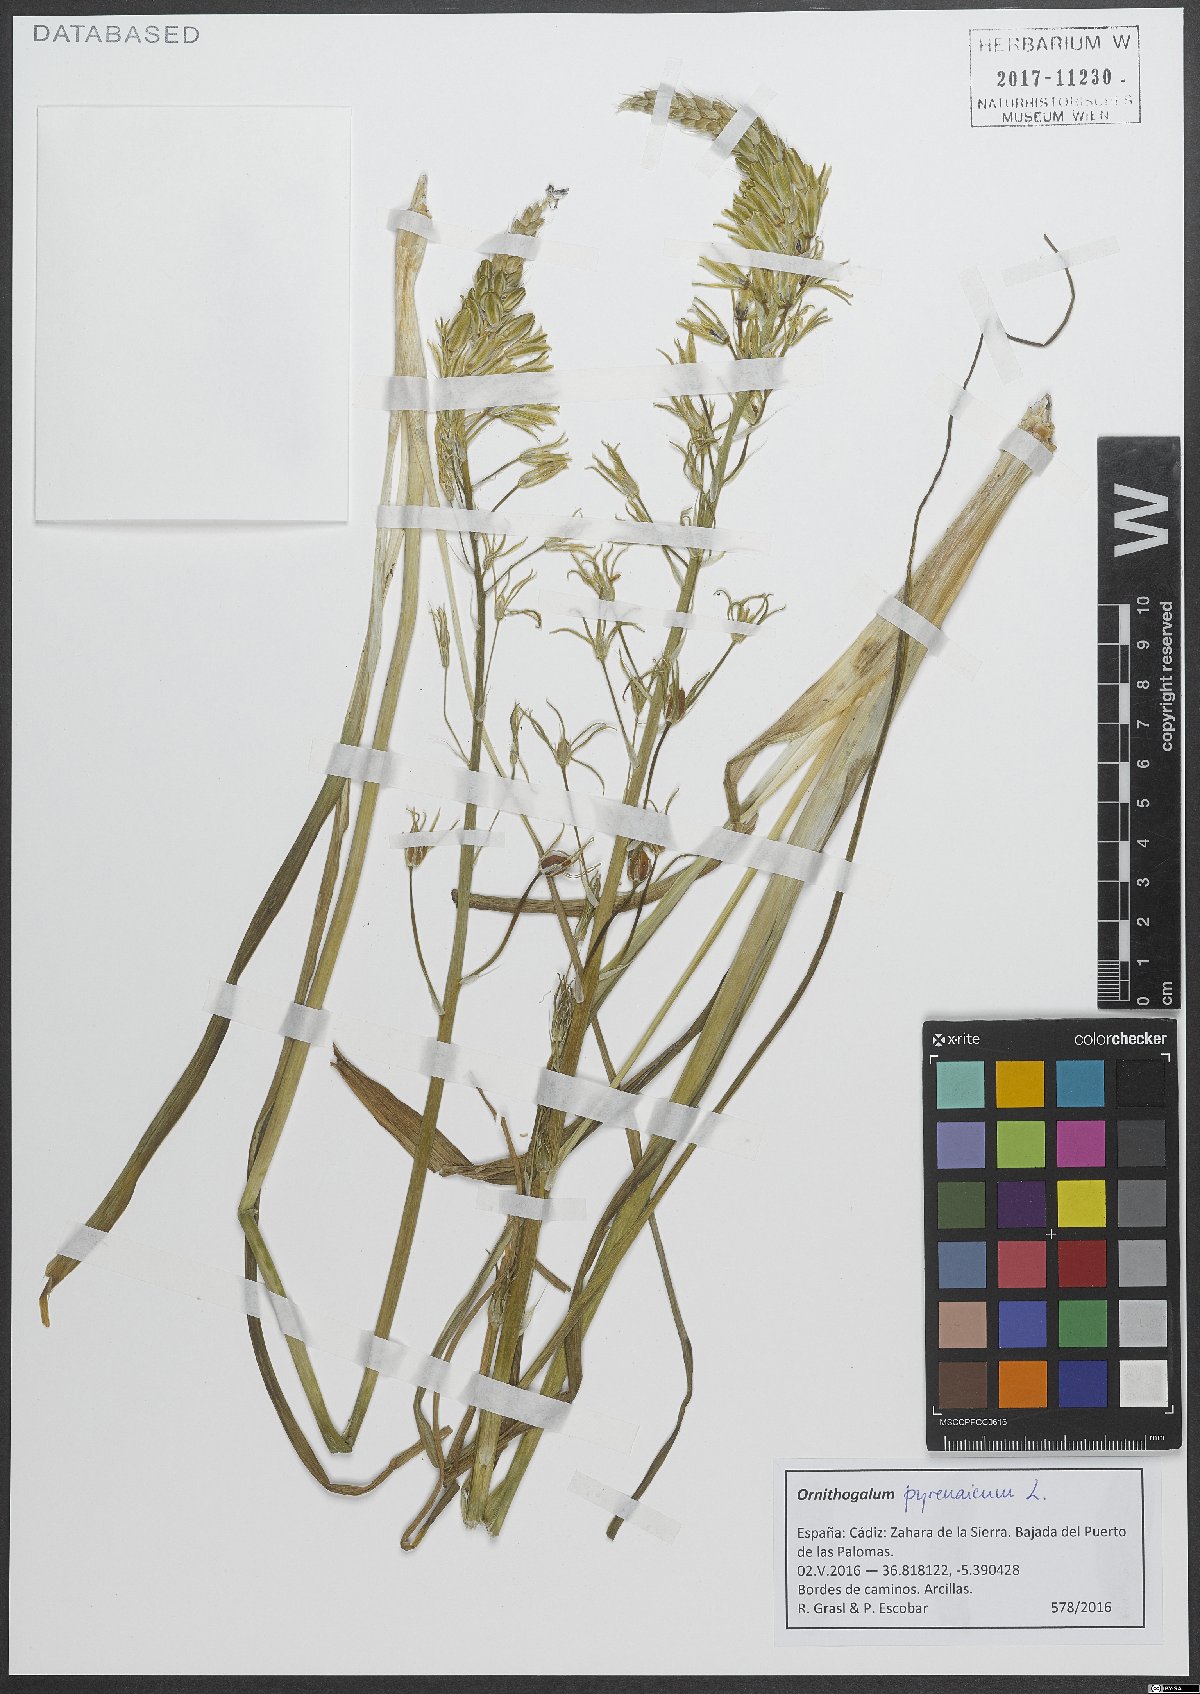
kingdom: Plantae
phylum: Tracheophyta
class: Liliopsida
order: Asparagales
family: Asparagaceae
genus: Ornithogalum
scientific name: Ornithogalum pyrenaicum
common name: Spiked star-of-bethlehem
